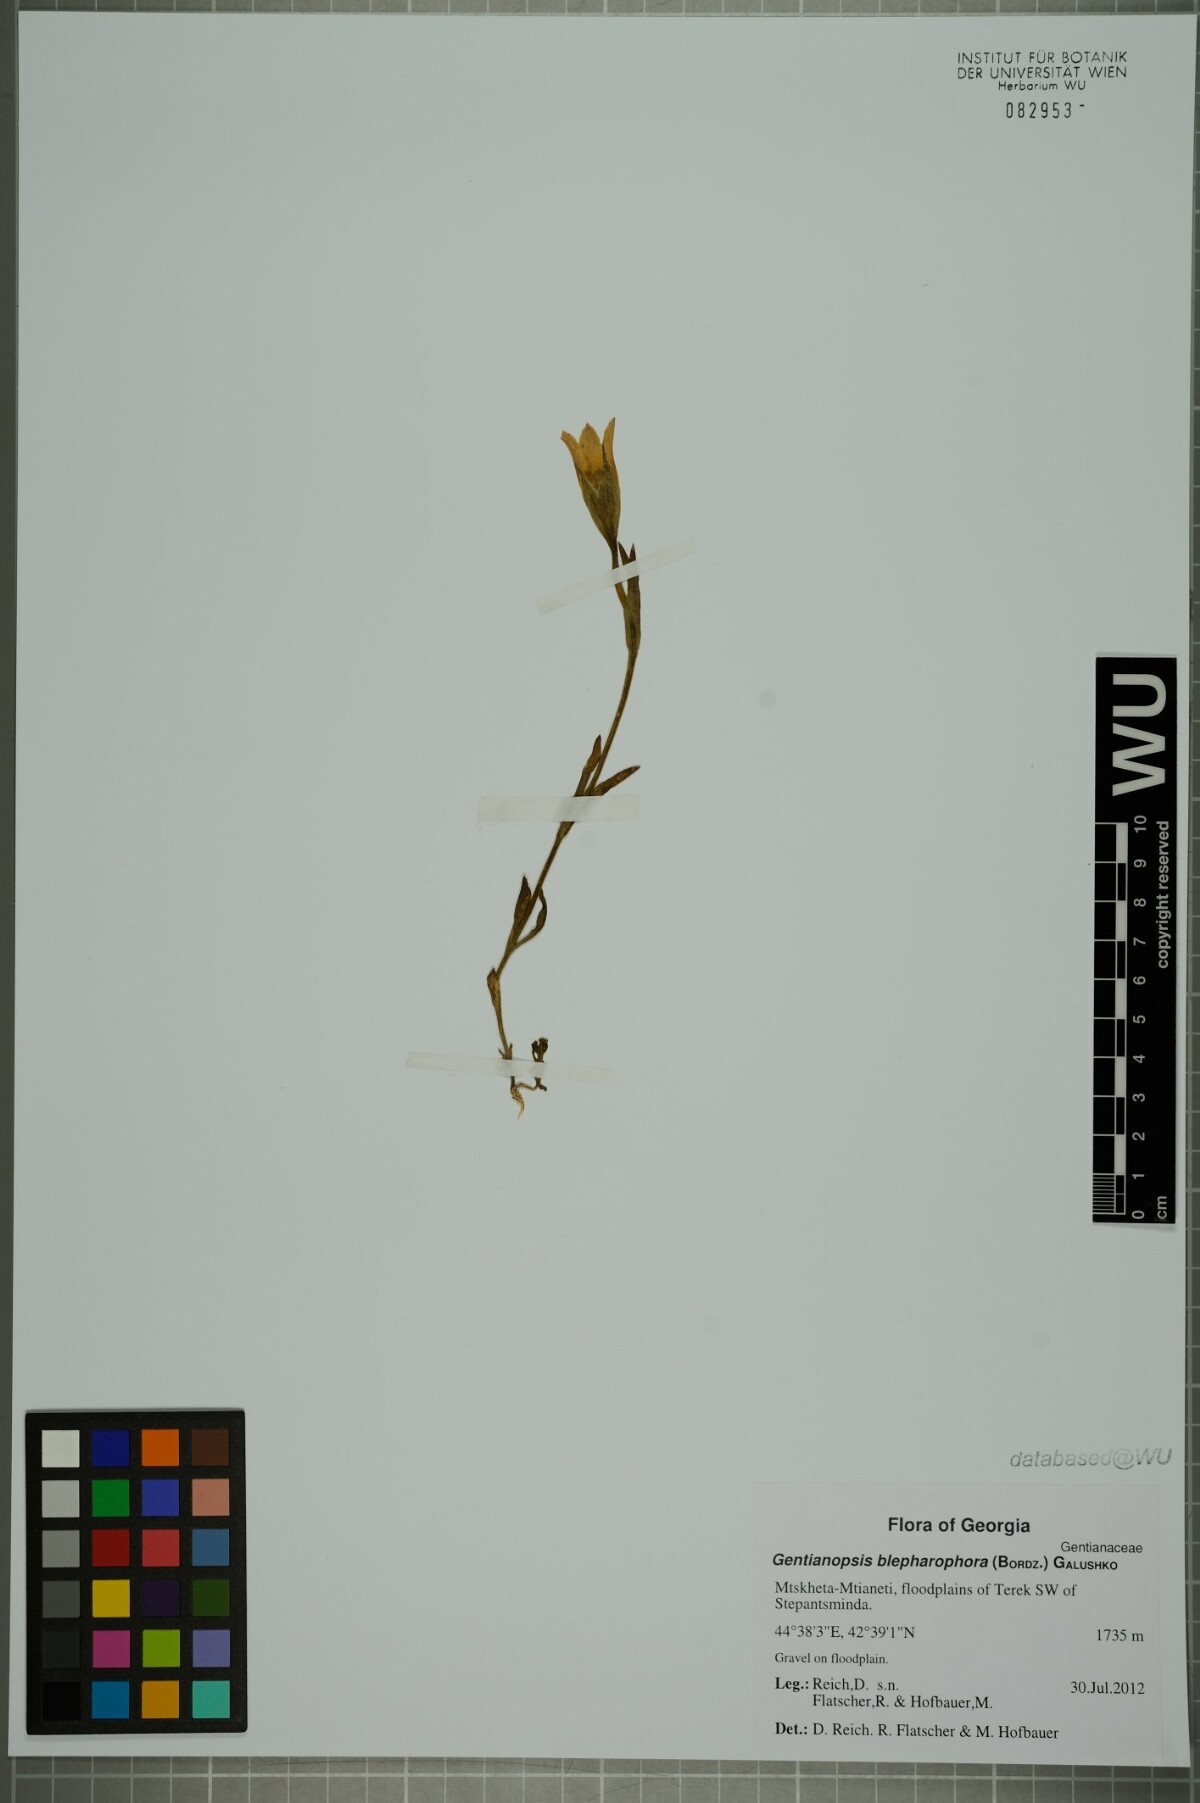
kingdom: Plantae
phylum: Tracheophyta
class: Magnoliopsida
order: Gentianales
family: Gentianaceae
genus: Gentianopsis
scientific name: Gentianopsis ciliata
